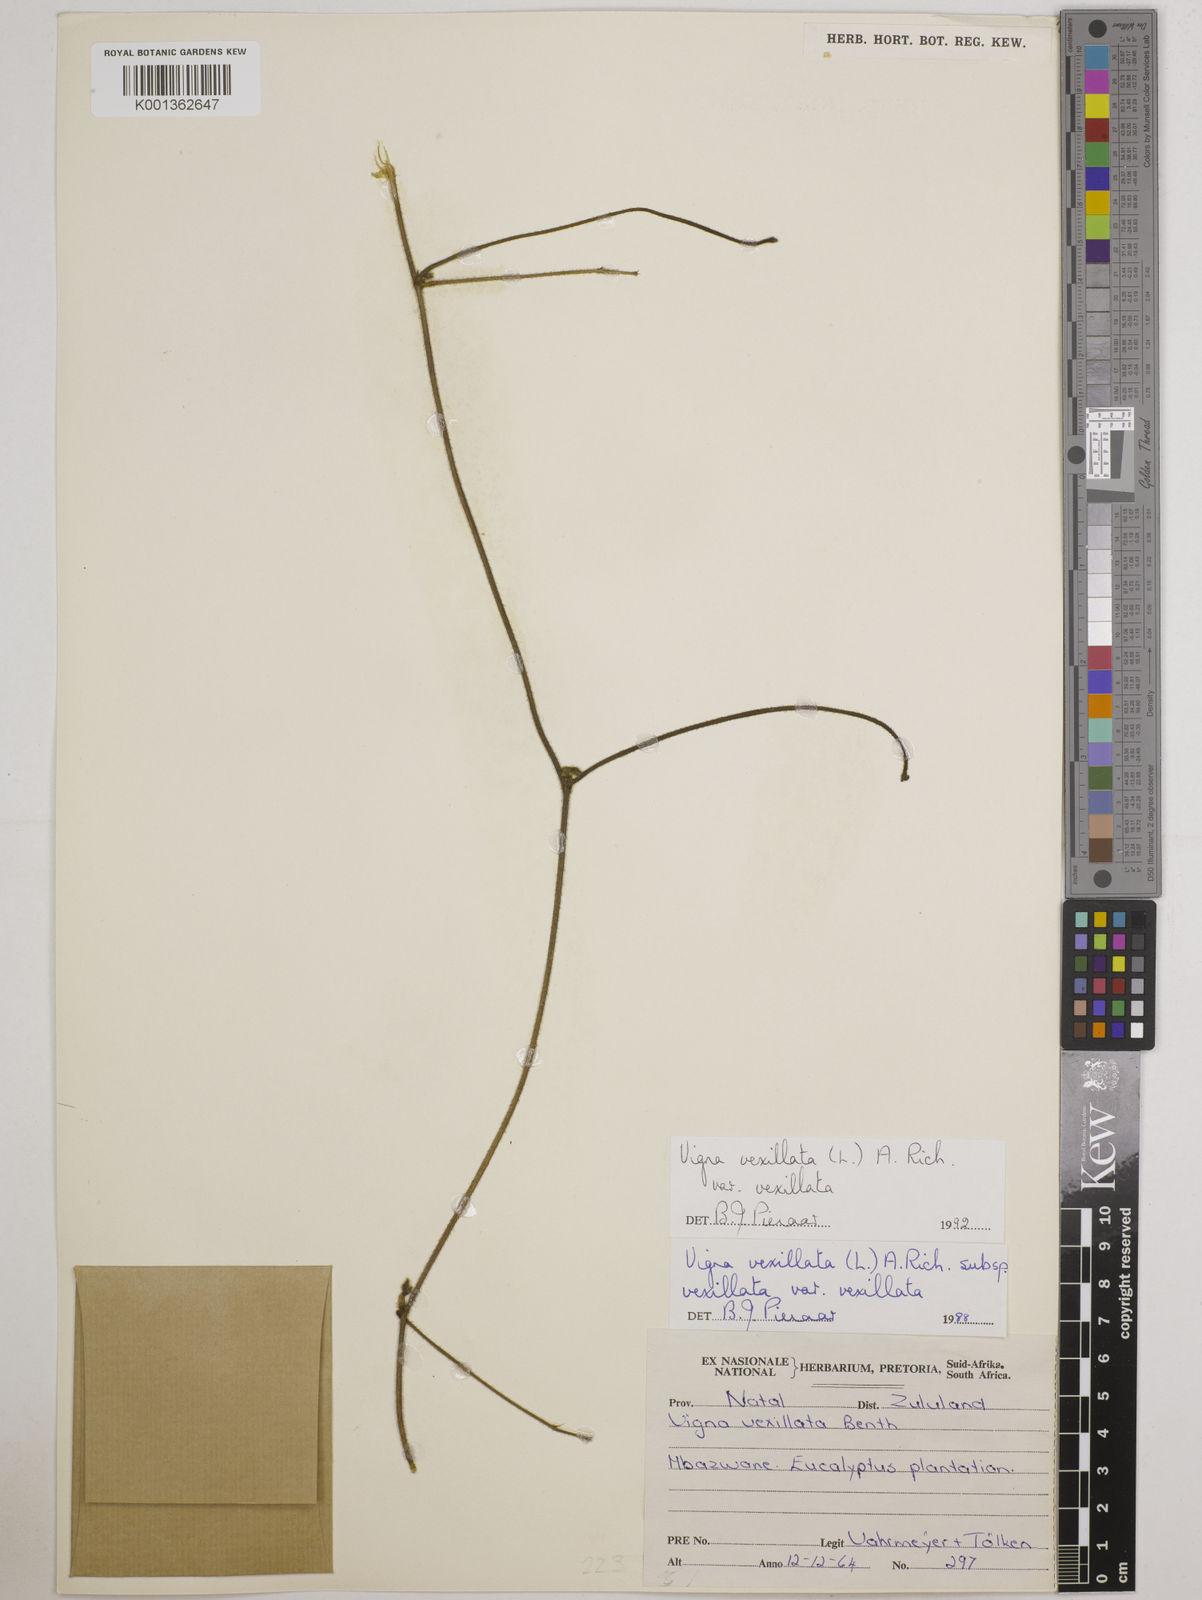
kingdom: Plantae
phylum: Tracheophyta
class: Magnoliopsida
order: Fabales
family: Fabaceae
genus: Vigna
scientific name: Vigna vexillata
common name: Zombi pea
